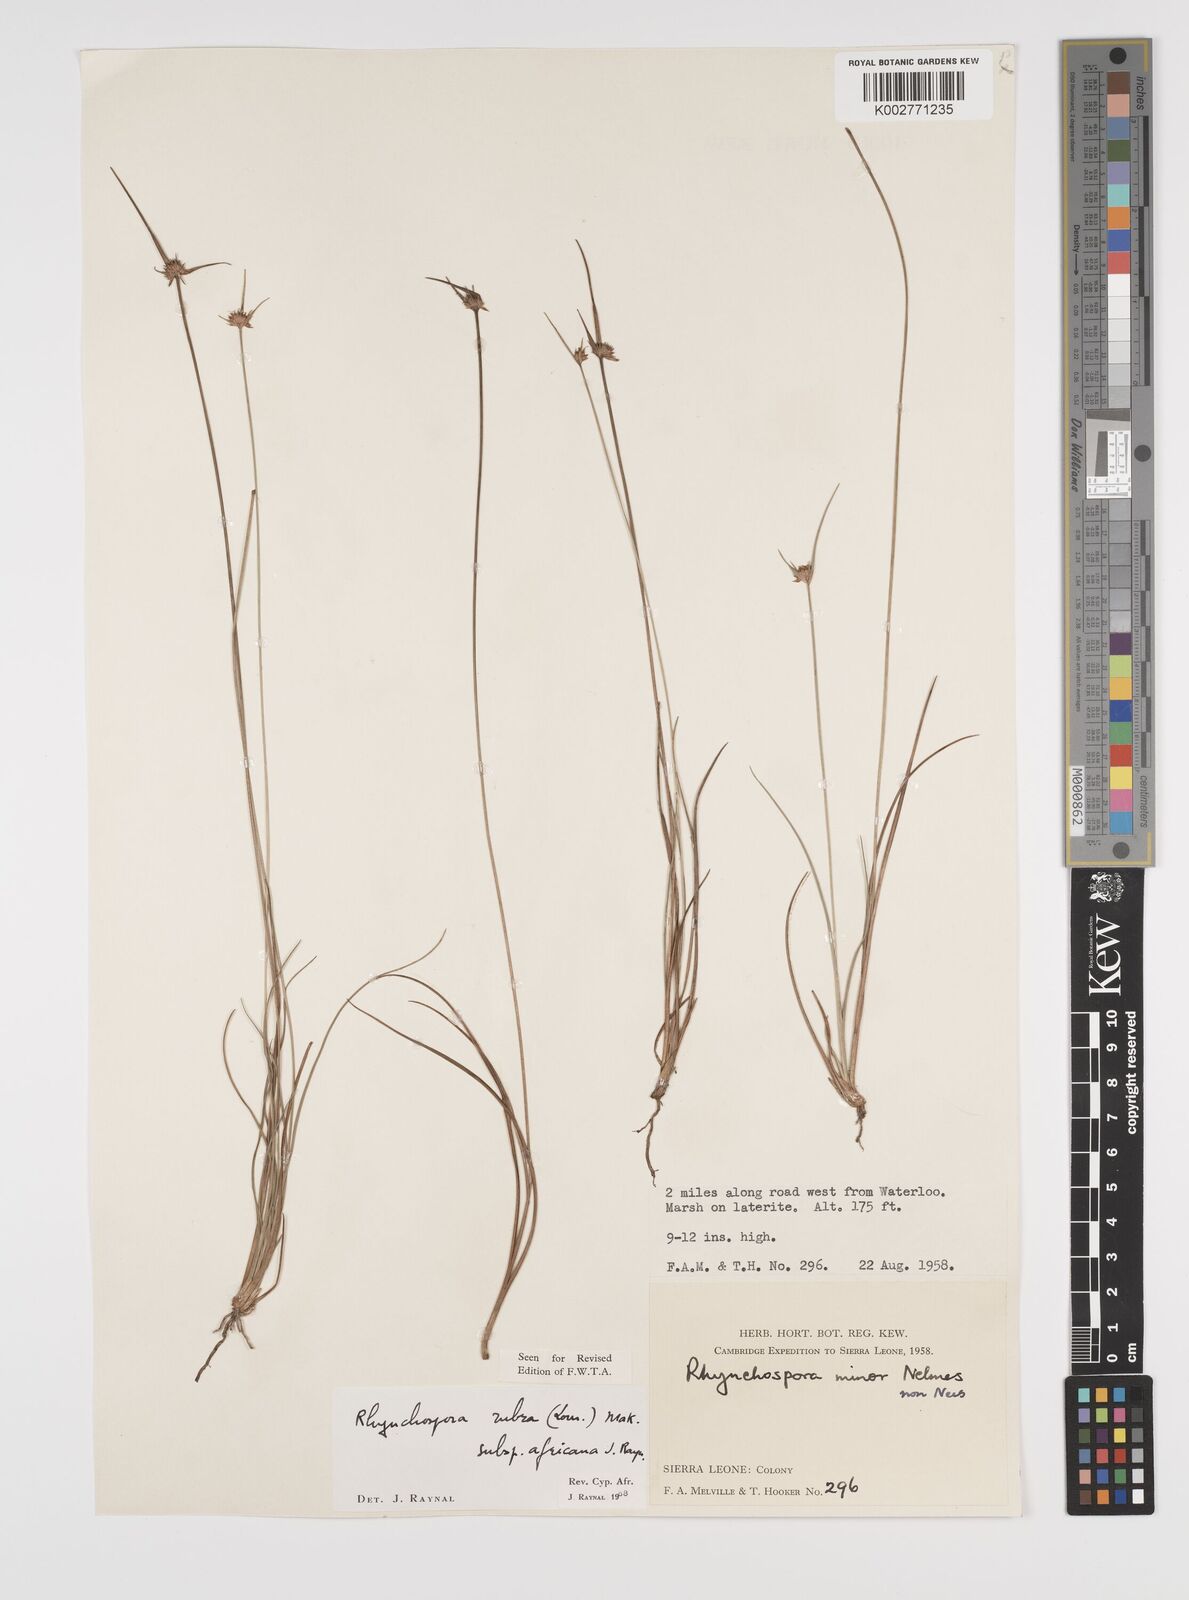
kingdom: Plantae
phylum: Tracheophyta
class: Liliopsida
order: Poales
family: Cyperaceae
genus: Rhynchospora
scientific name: Rhynchospora rubra
